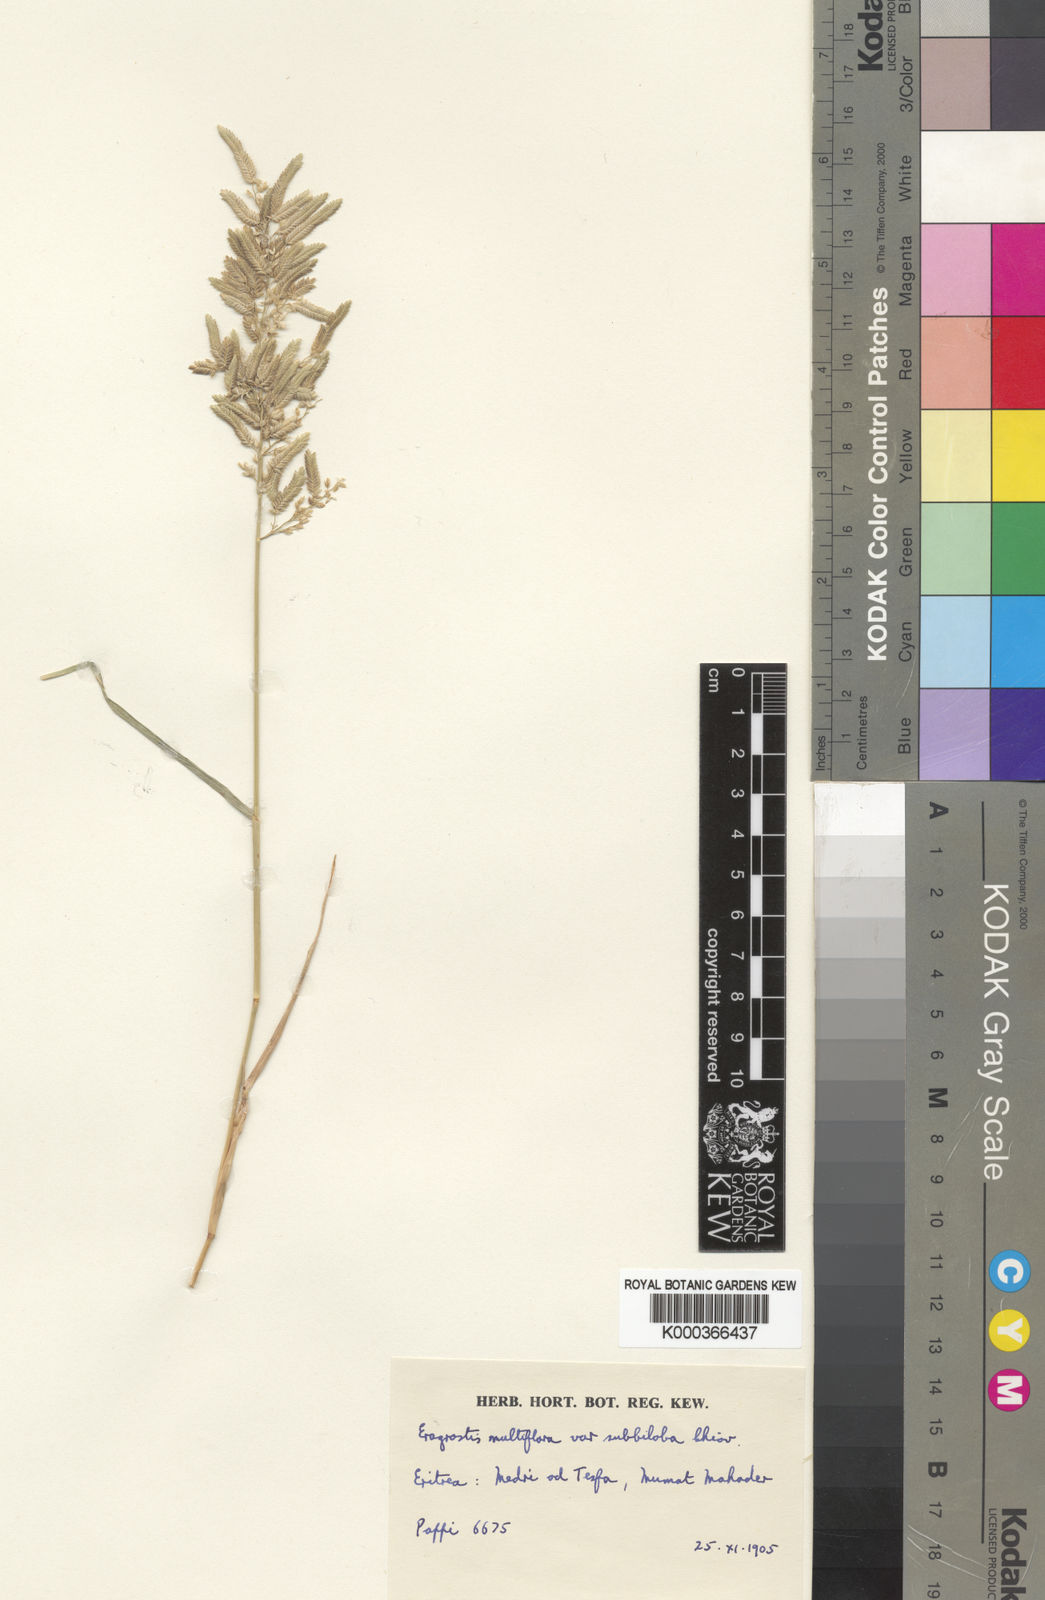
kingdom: Plantae
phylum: Tracheophyta
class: Liliopsida
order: Poales
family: Poaceae
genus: Eragrostis
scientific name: Eragrostis
